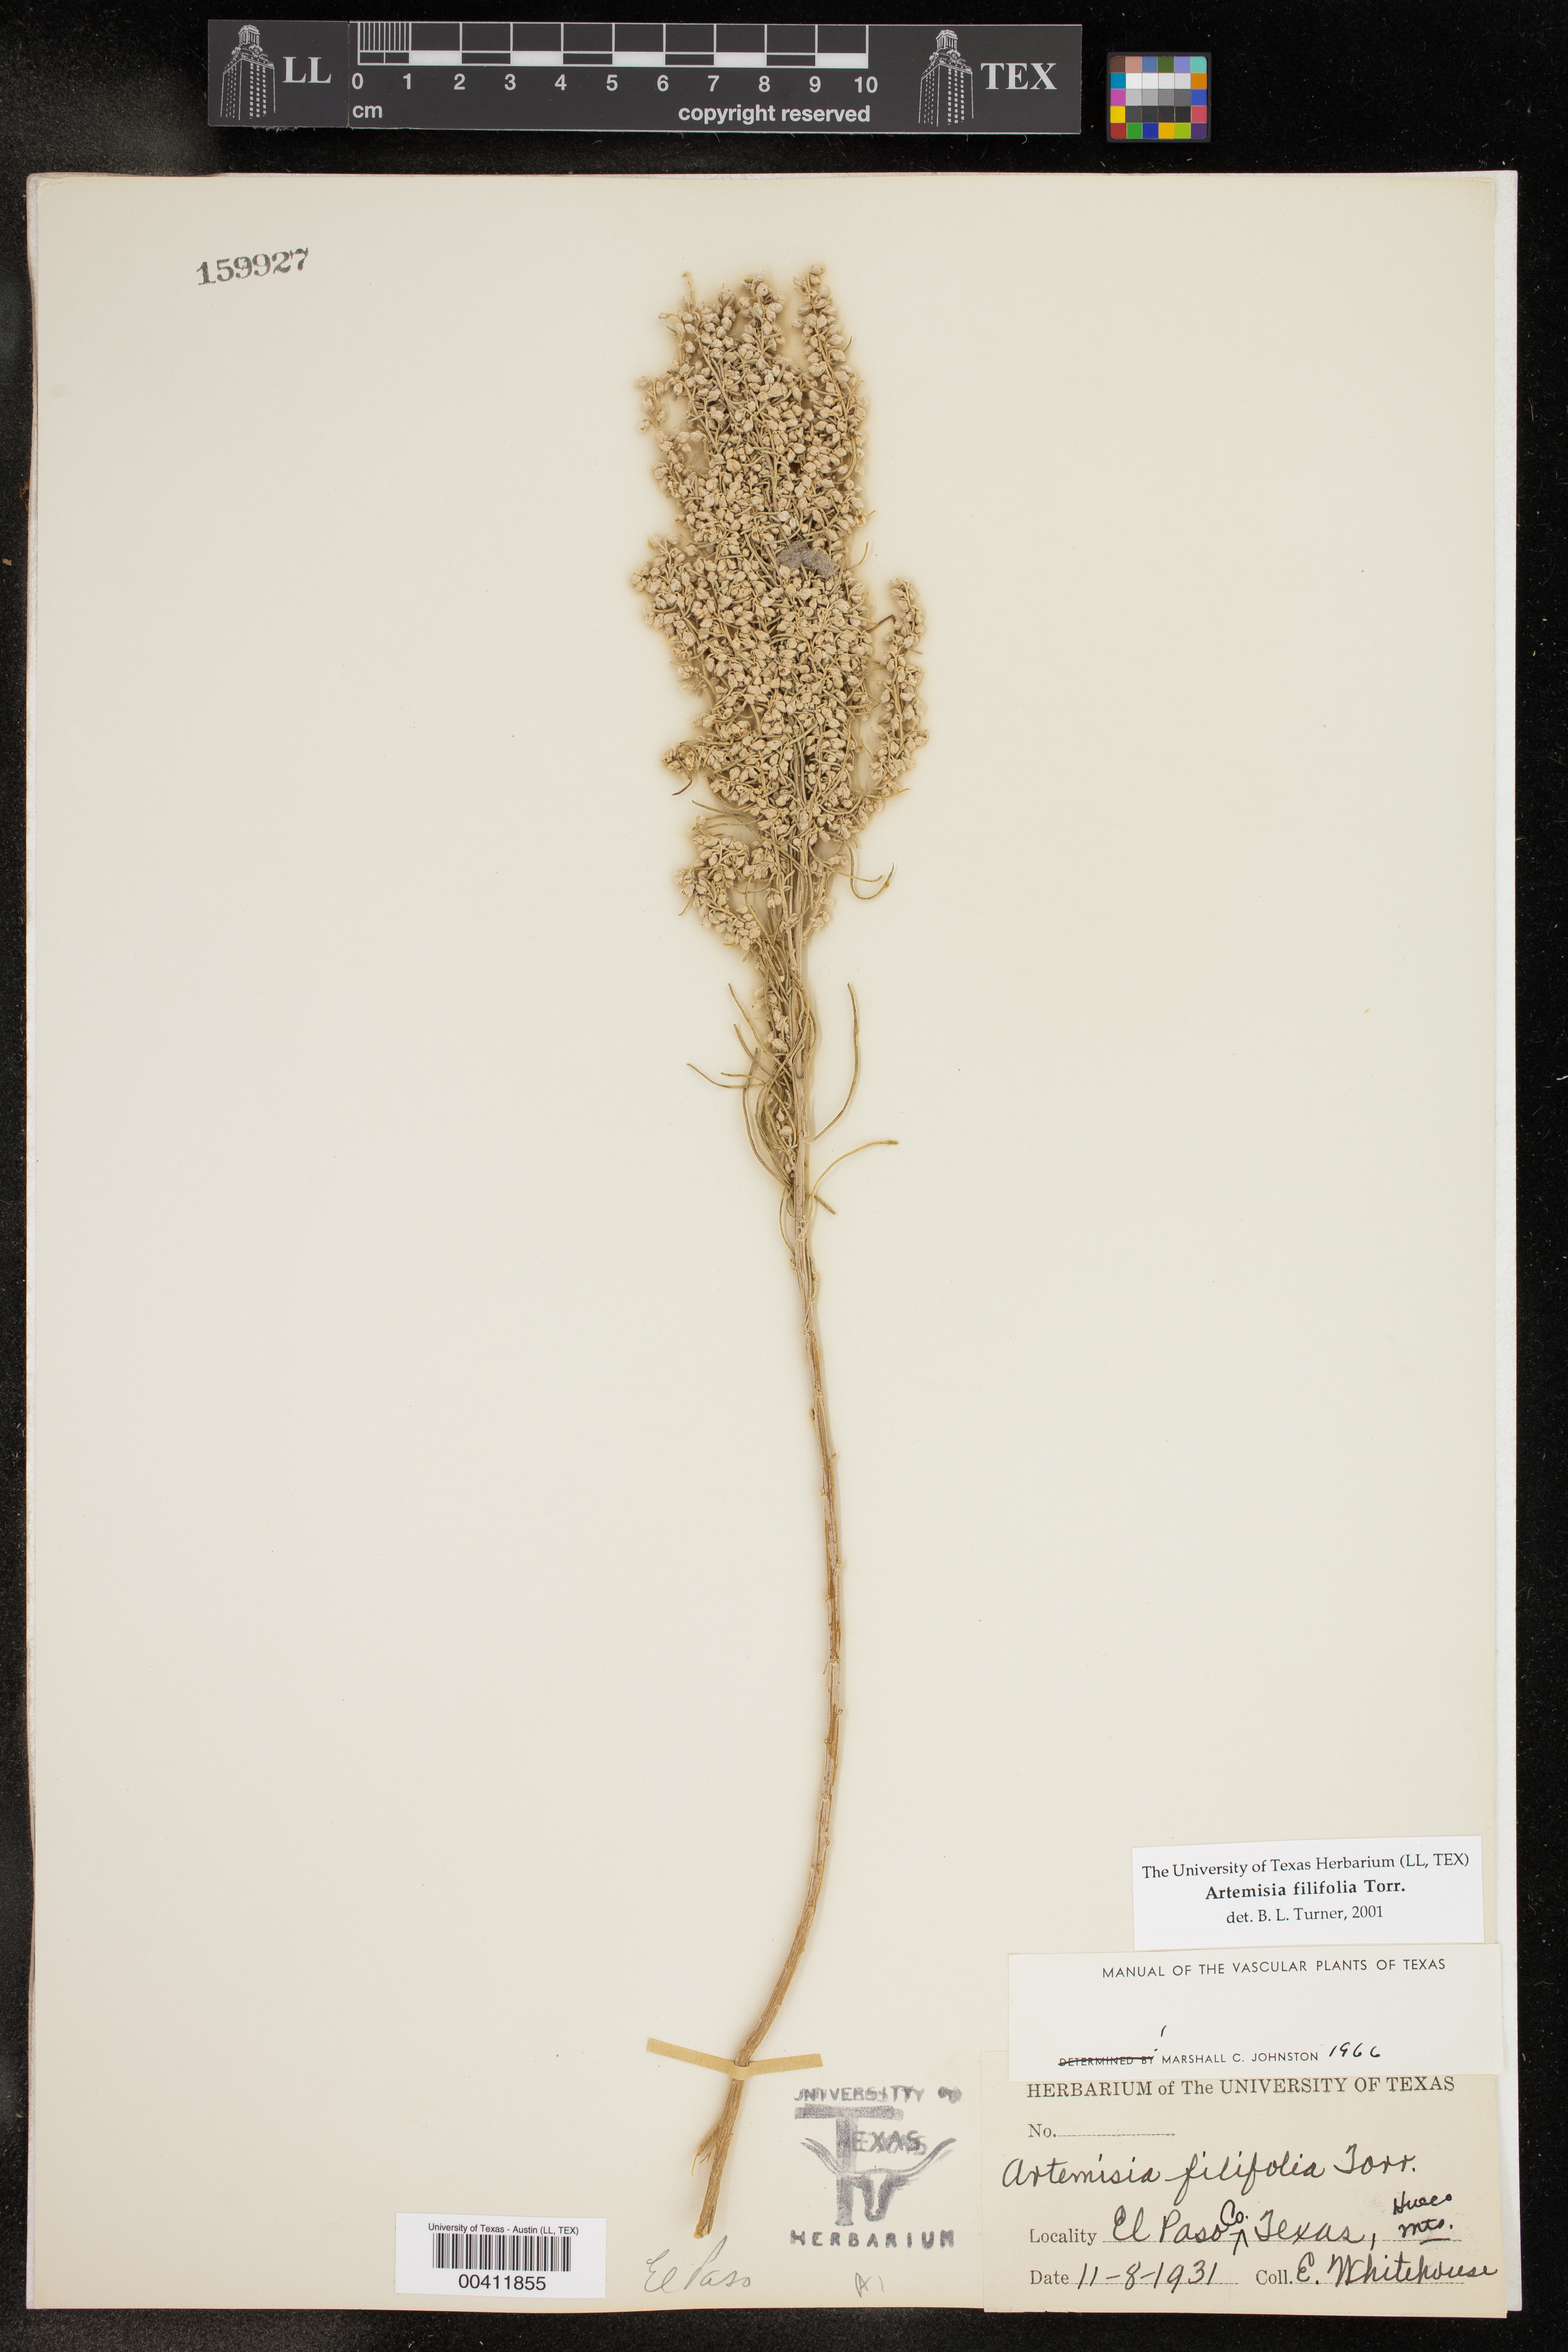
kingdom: Plantae
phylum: Tracheophyta
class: Magnoliopsida
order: Asterales
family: Asteraceae
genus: Artemisia
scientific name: Artemisia filifolia
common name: Sand-sage
